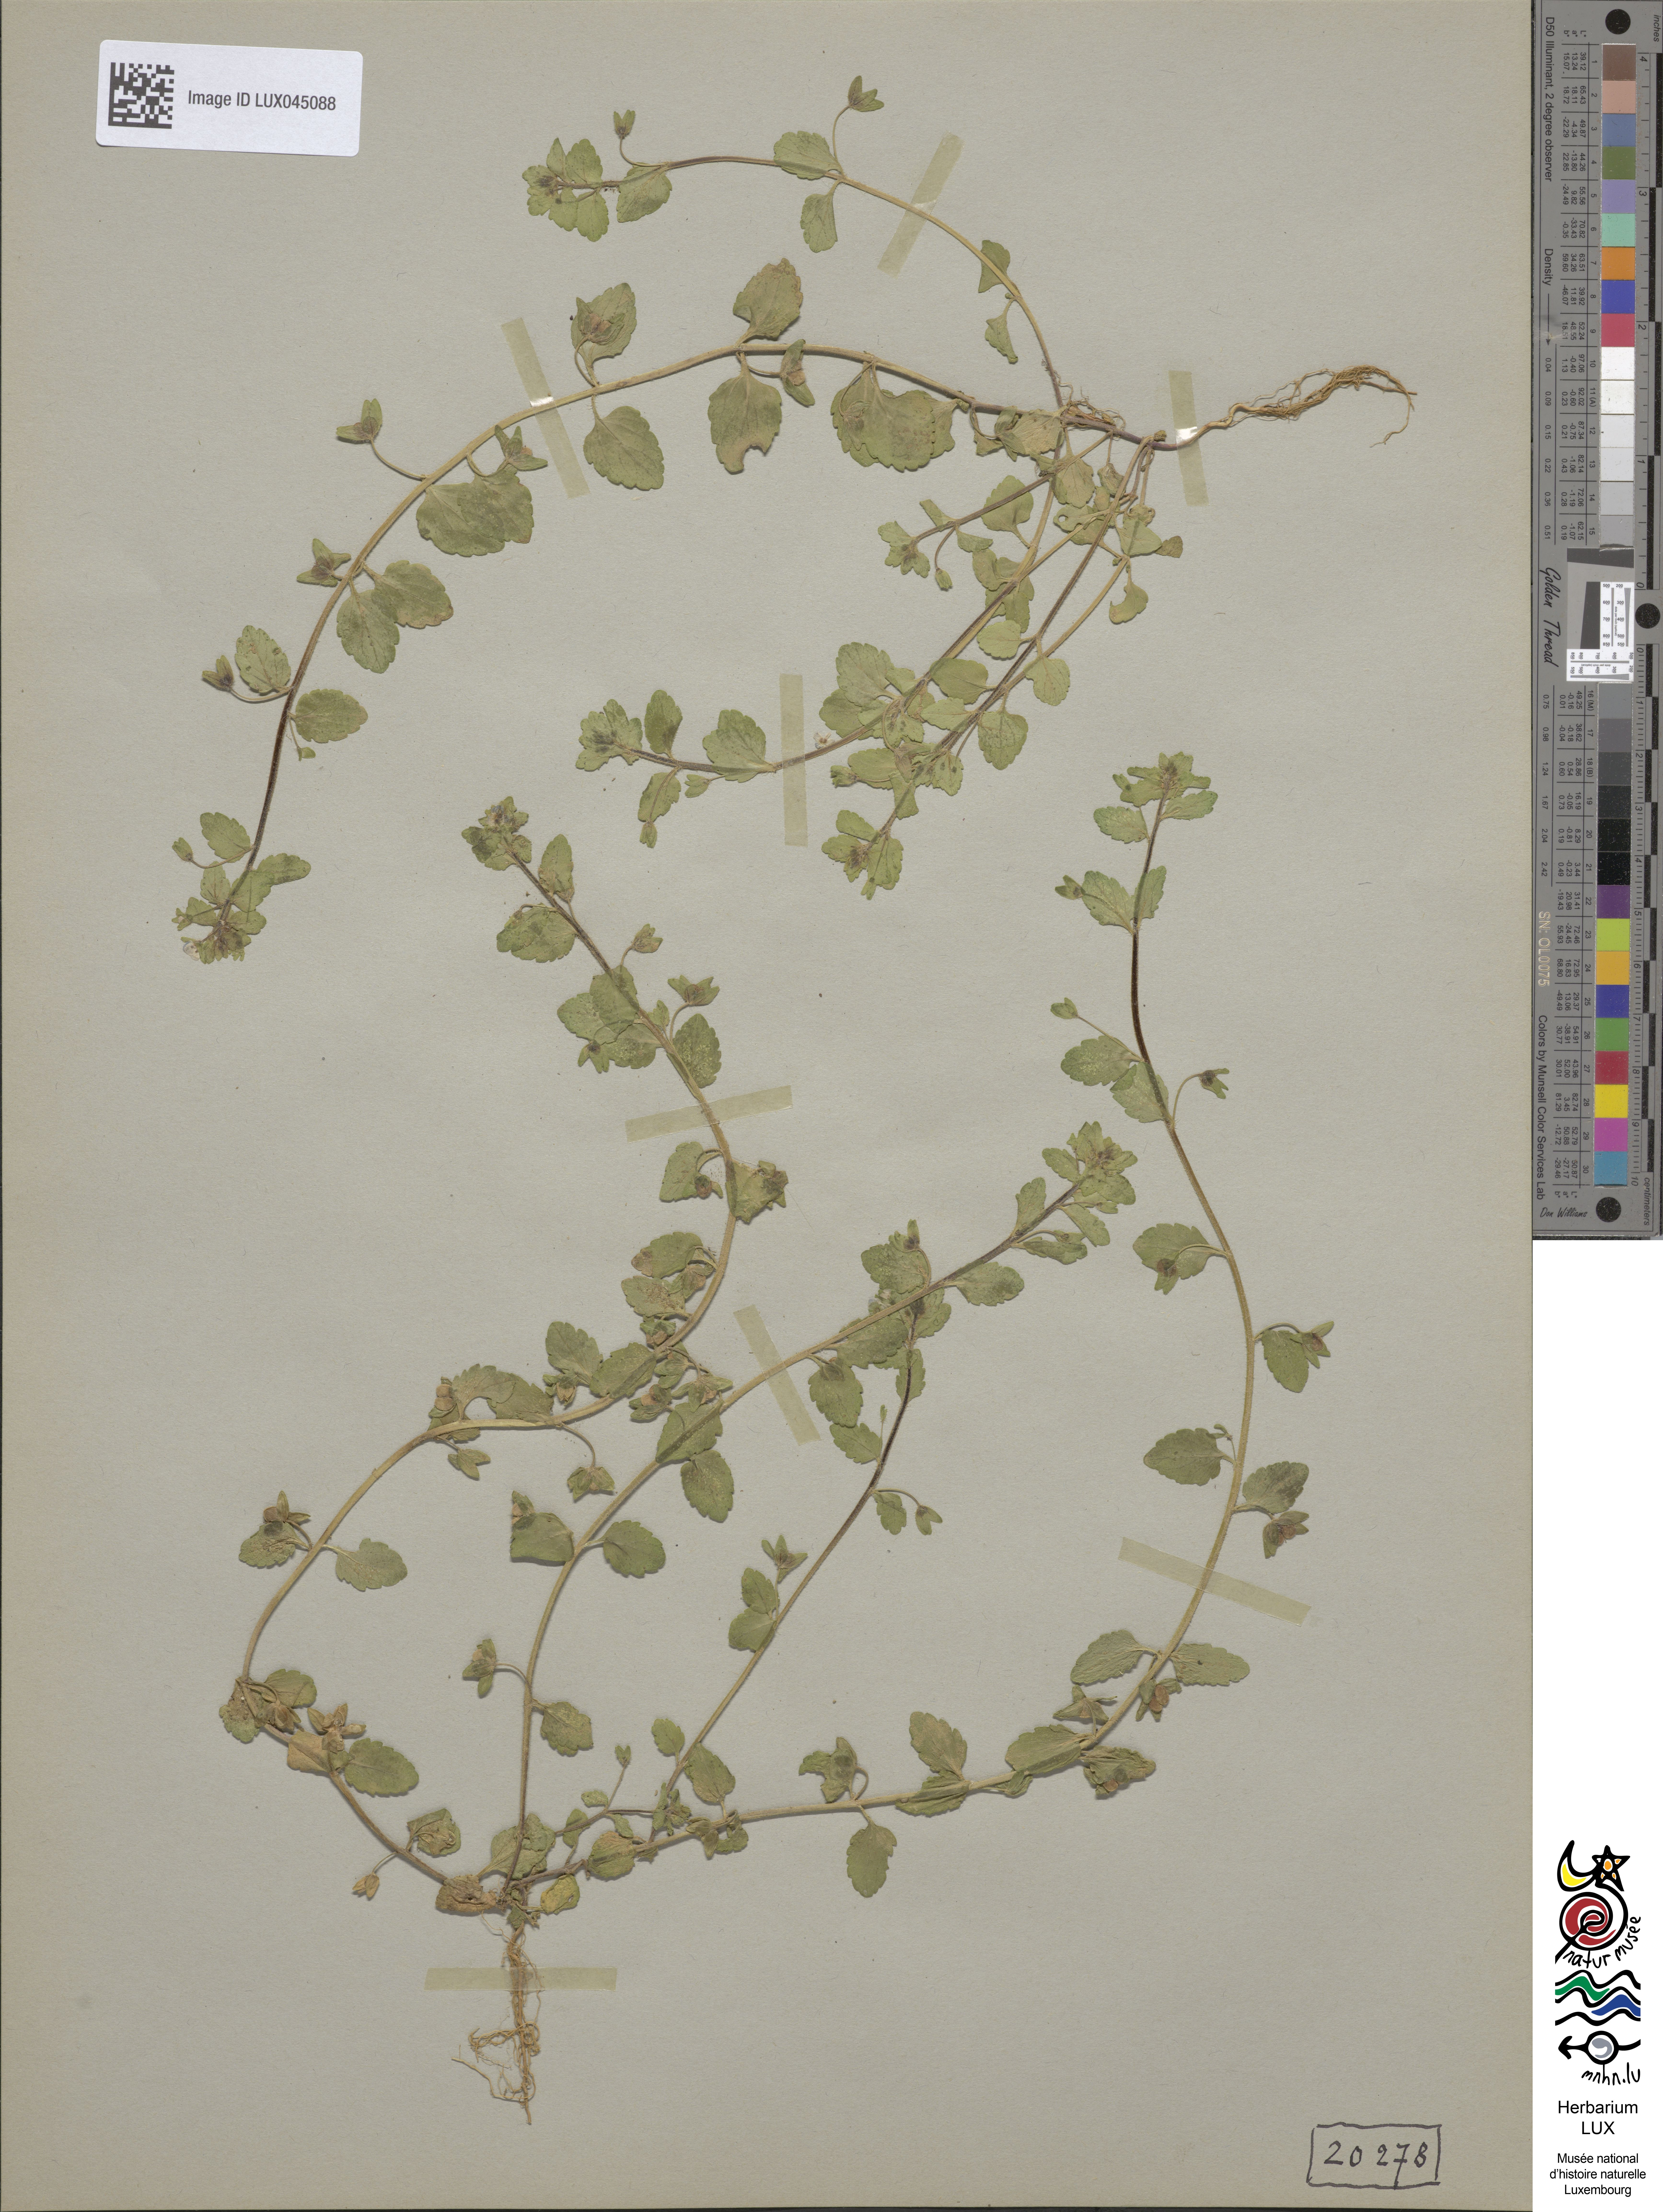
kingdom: Plantae
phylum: Tracheophyta
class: Magnoliopsida
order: Lamiales
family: Plantaginaceae
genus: Veronica
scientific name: Veronica agrestis
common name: Green field-speedwell
